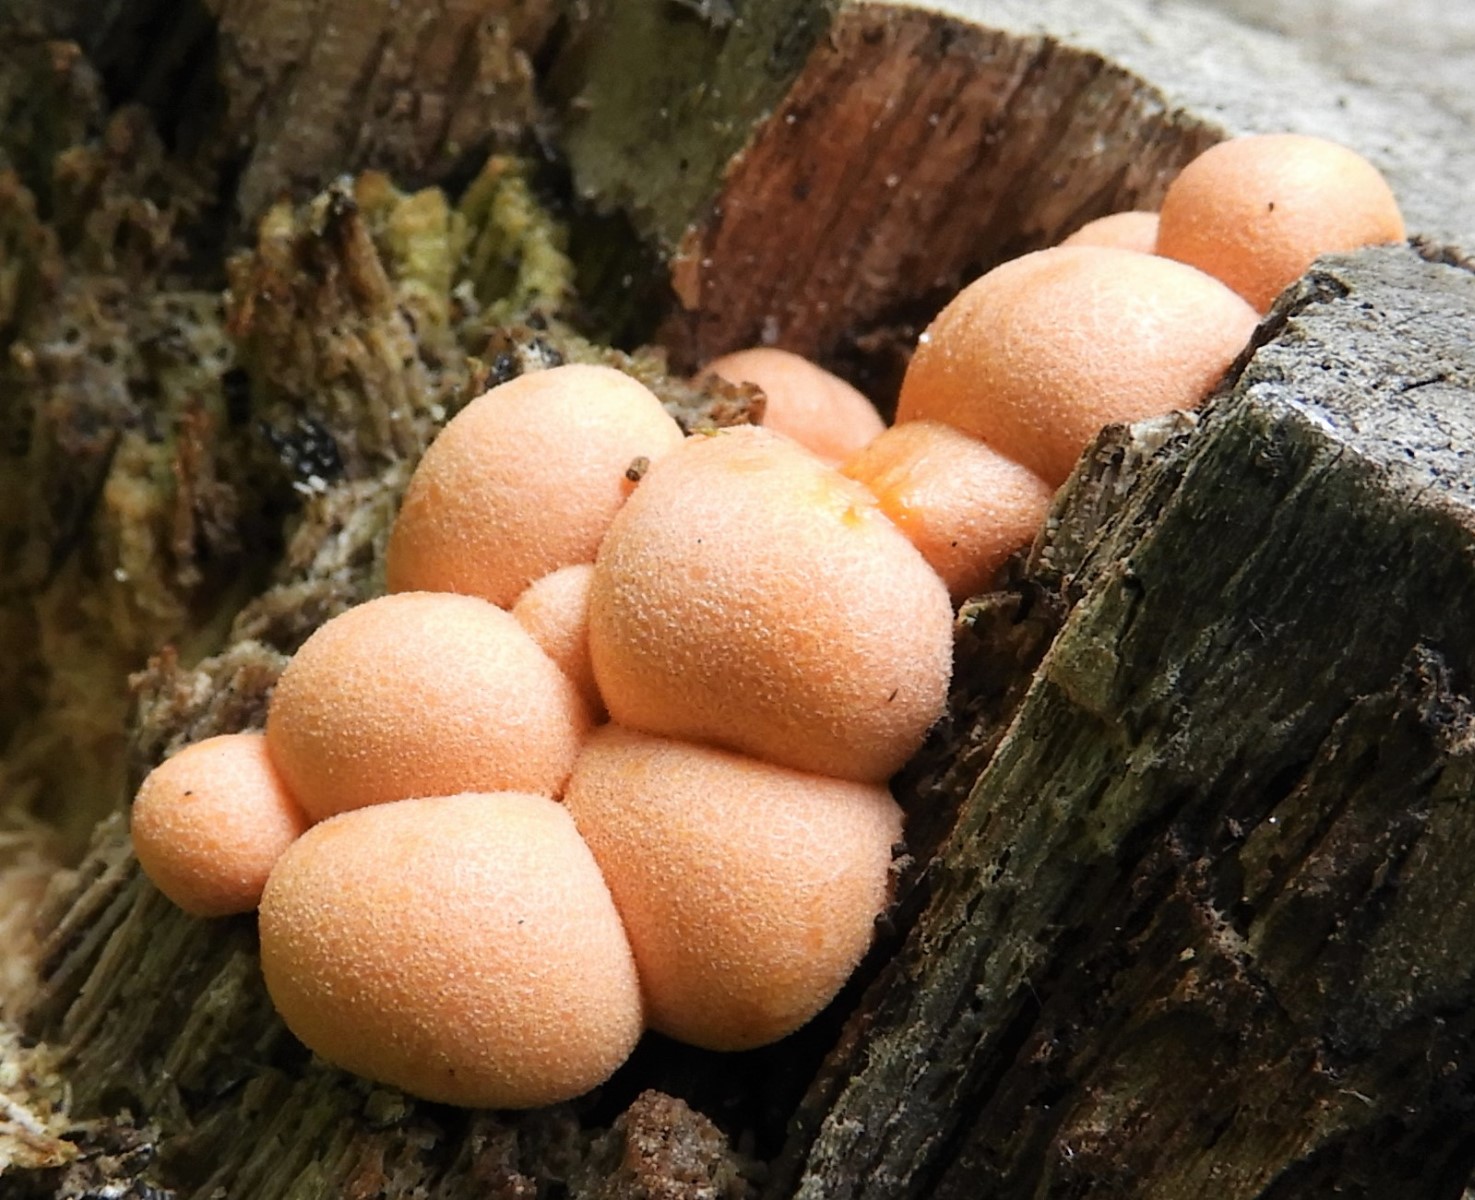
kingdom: Protozoa
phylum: Mycetozoa
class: Myxomycetes
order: Cribrariales
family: Tubiferaceae
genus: Lycogala
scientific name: Lycogala epidendrum
